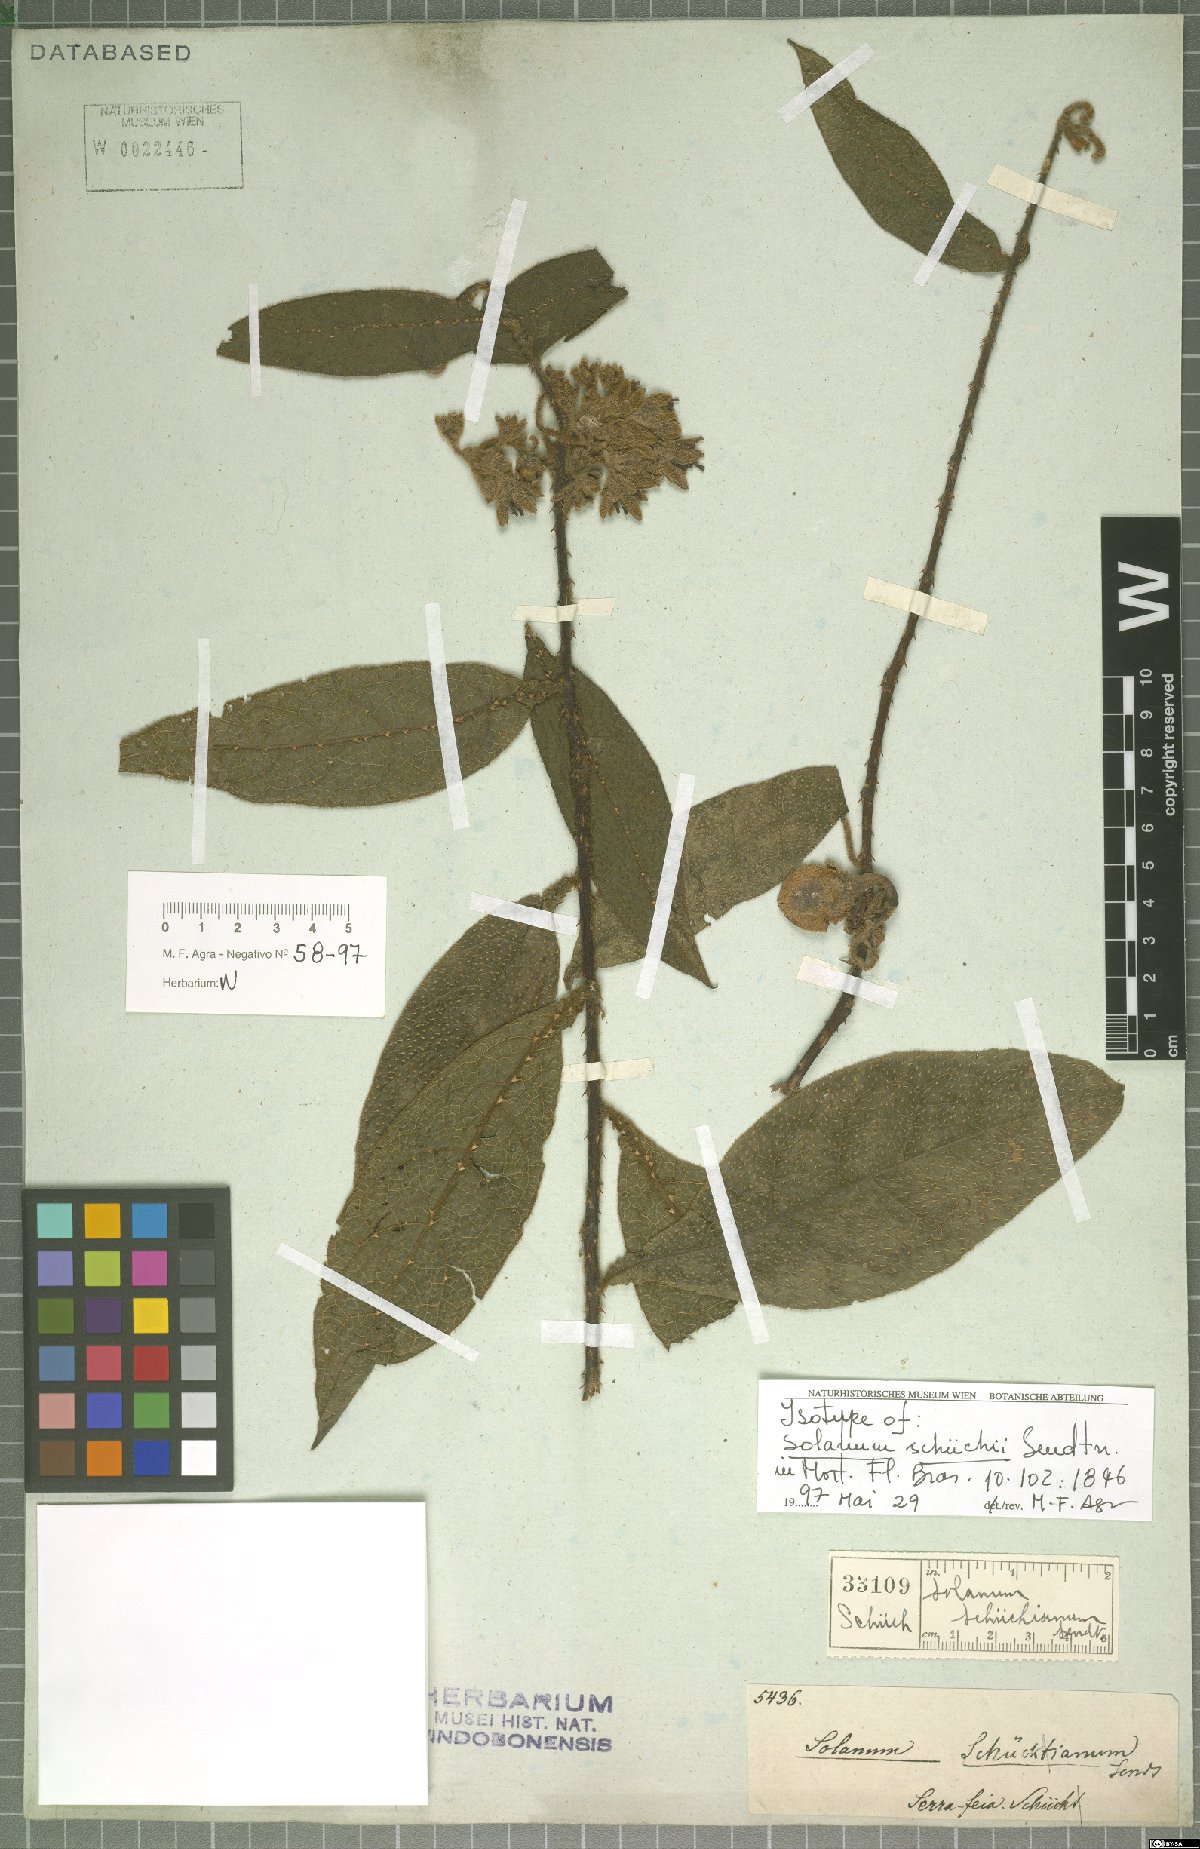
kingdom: Plantae
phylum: Tracheophyta
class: Magnoliopsida
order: Solanales
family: Solanaceae
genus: Solanum
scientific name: Solanum schuechii
